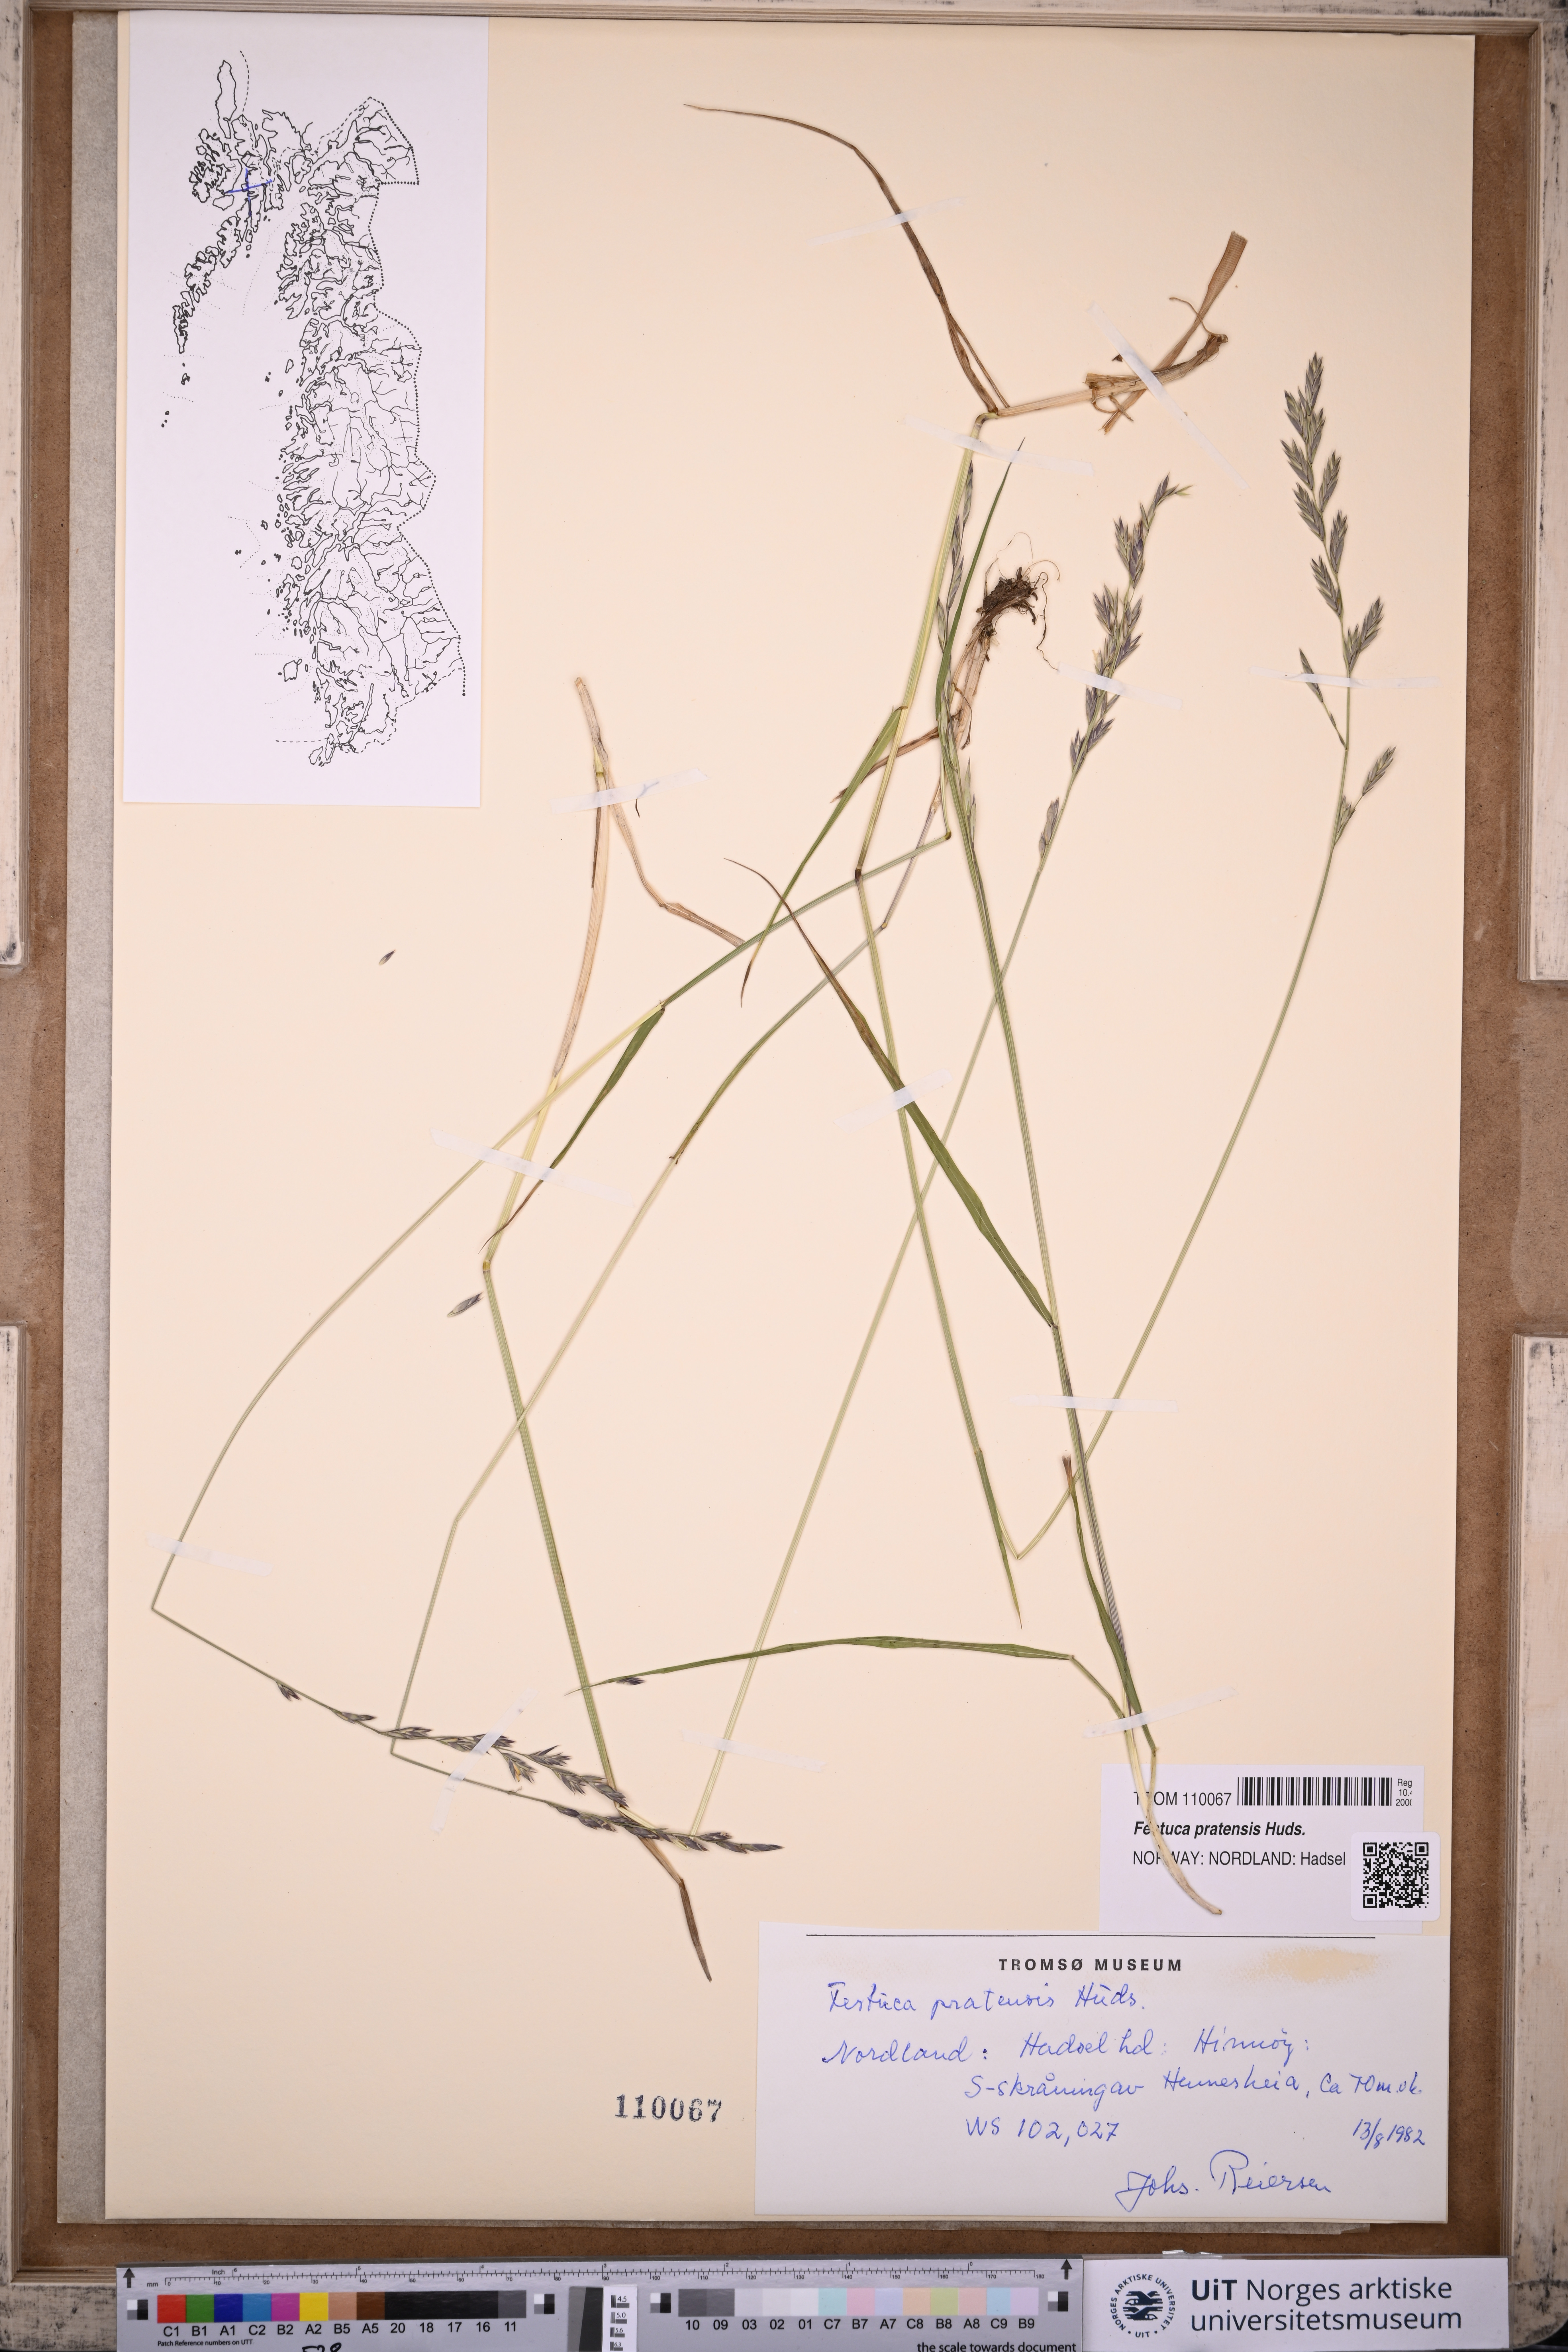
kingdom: Plantae
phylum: Tracheophyta
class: Liliopsida
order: Poales
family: Poaceae
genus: Lolium
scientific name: Lolium pratense
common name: Dover grass
